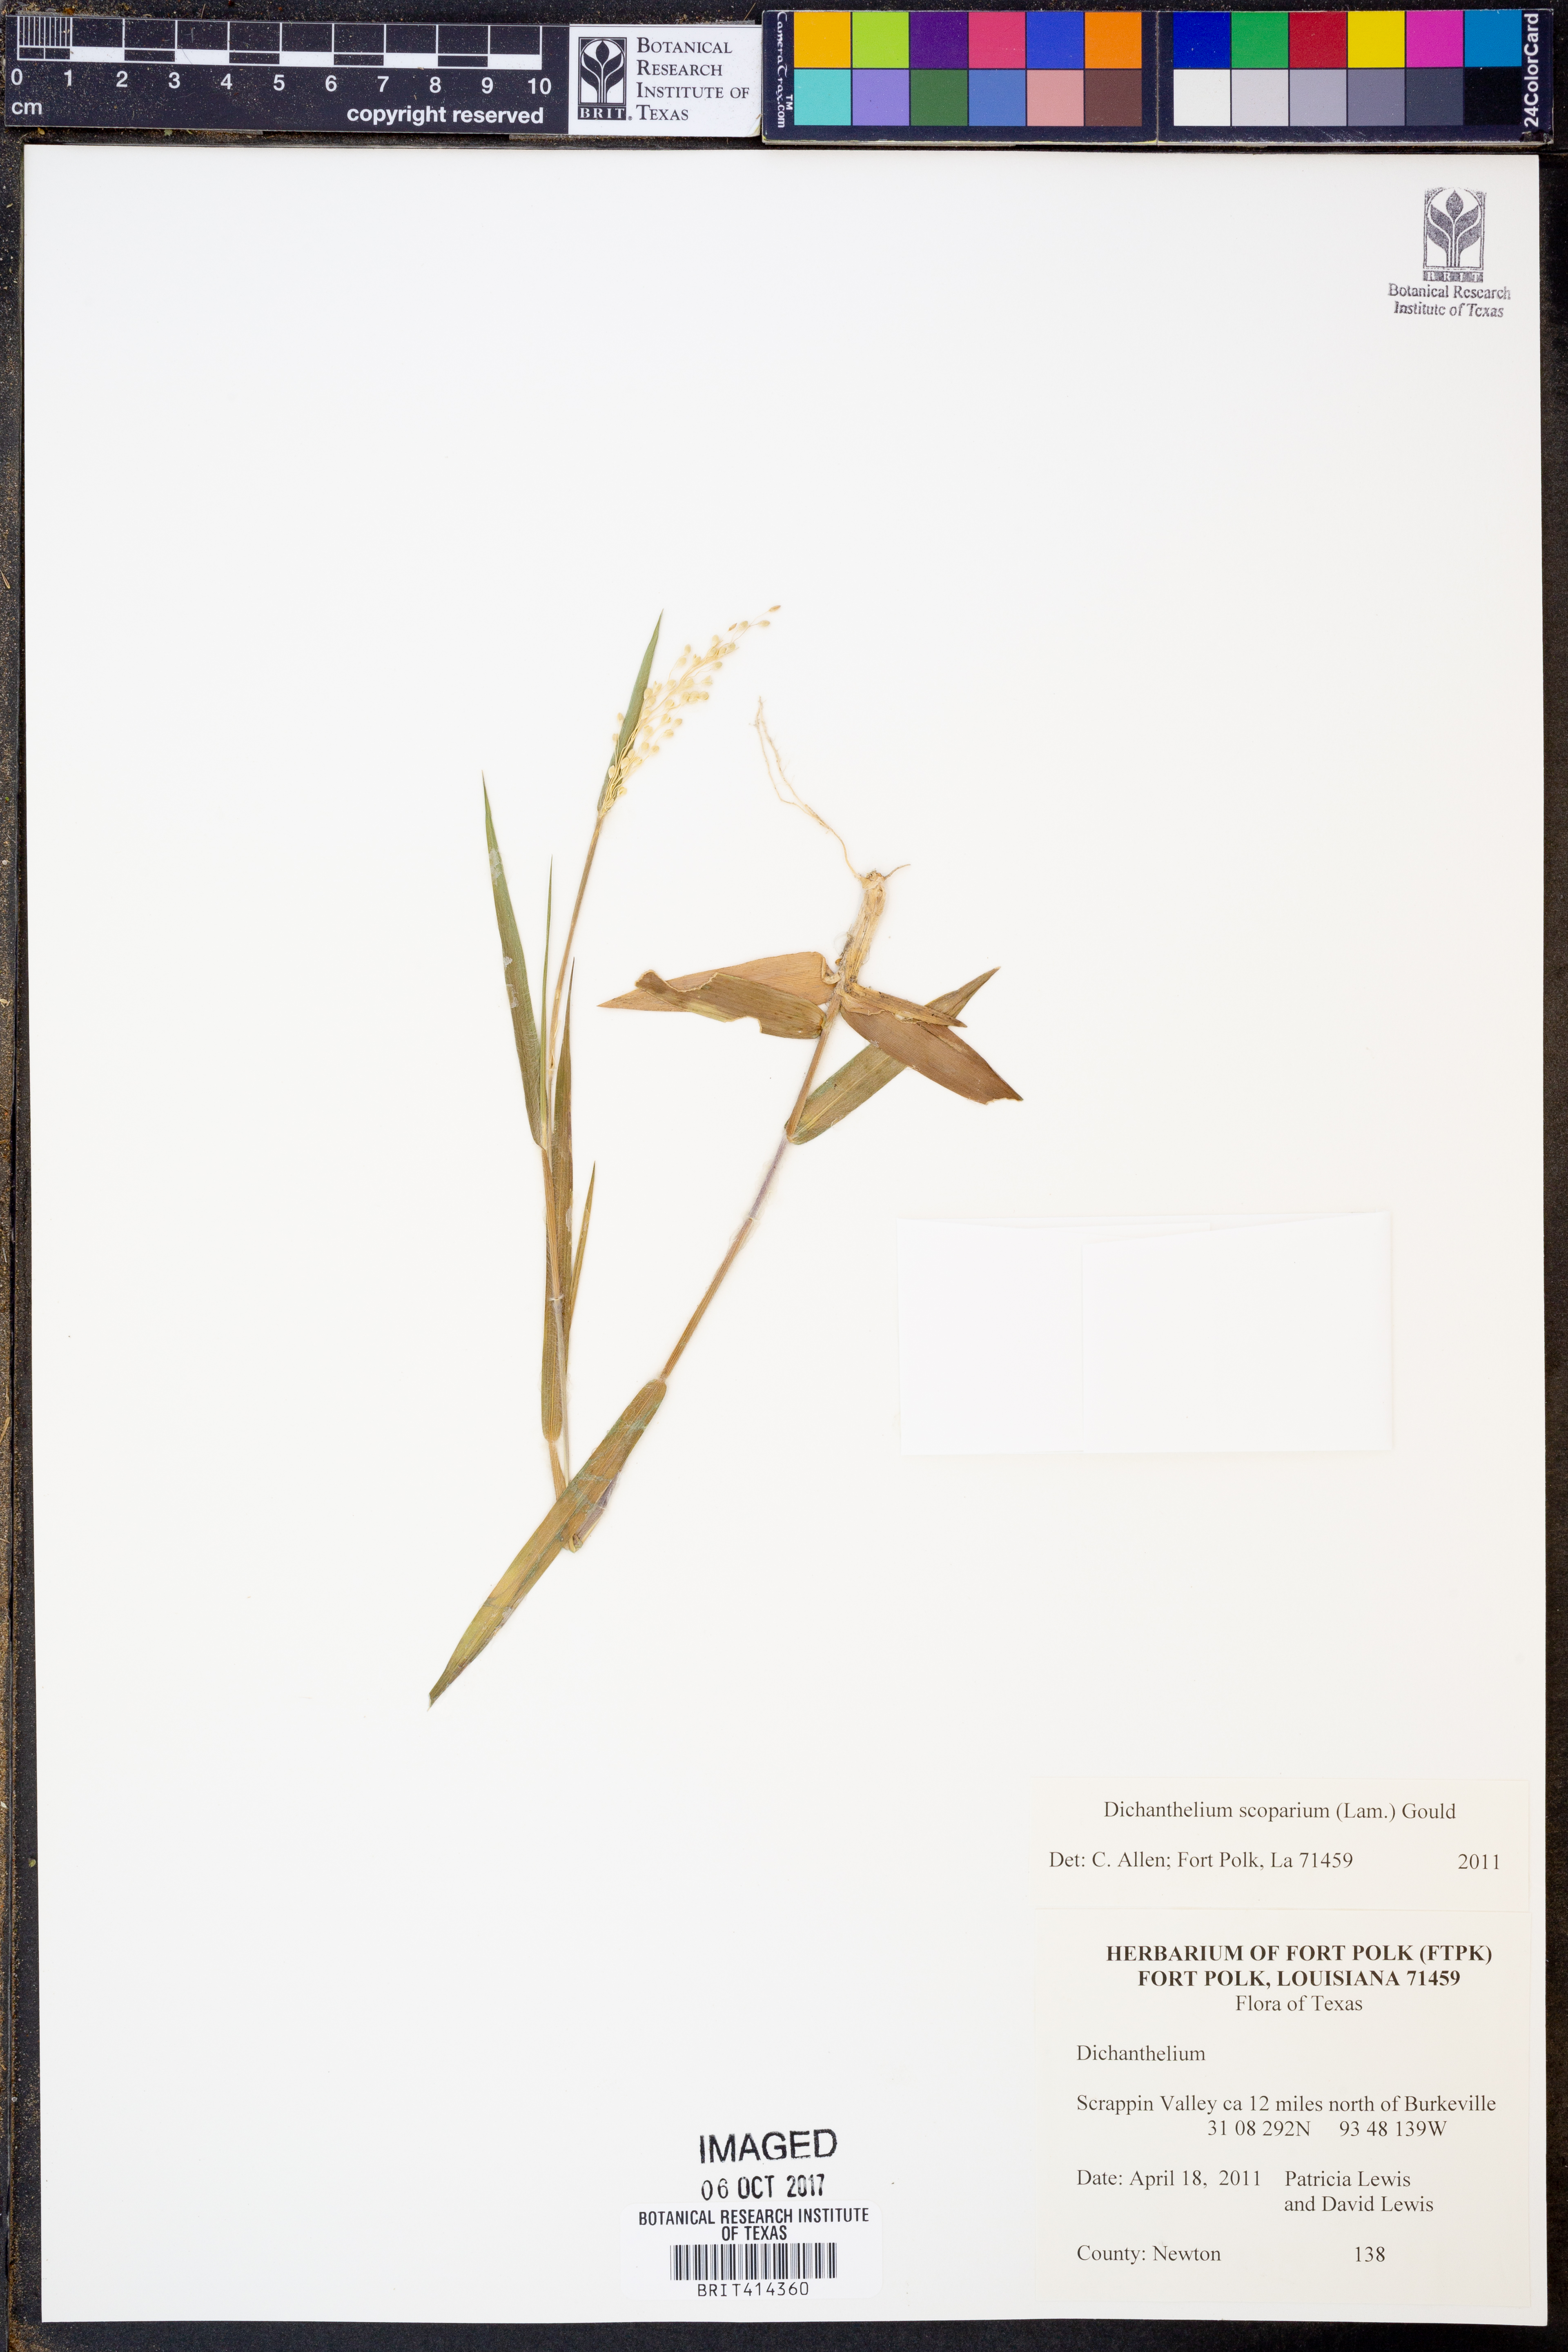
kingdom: Plantae
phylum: Tracheophyta
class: Liliopsida
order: Poales
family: Poaceae
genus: Dichanthelium
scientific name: Dichanthelium scoparium
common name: Velvety panic grass
